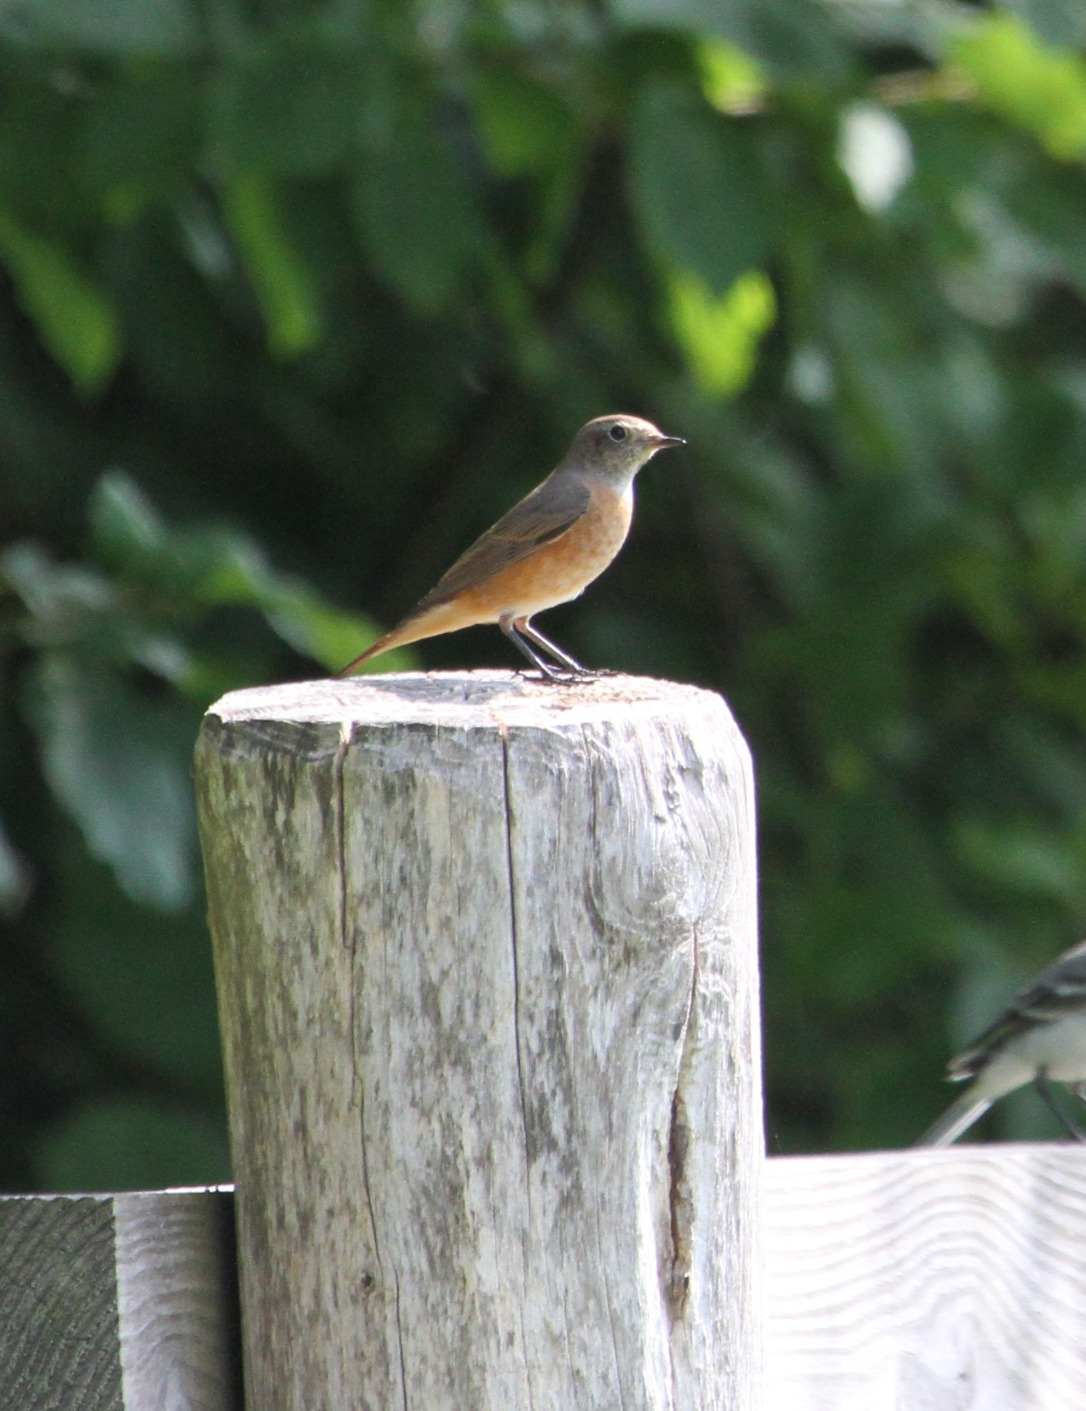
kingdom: Animalia
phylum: Chordata
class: Aves
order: Passeriformes
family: Muscicapidae
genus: Phoenicurus
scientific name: Phoenicurus phoenicurus
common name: Rødstjert
